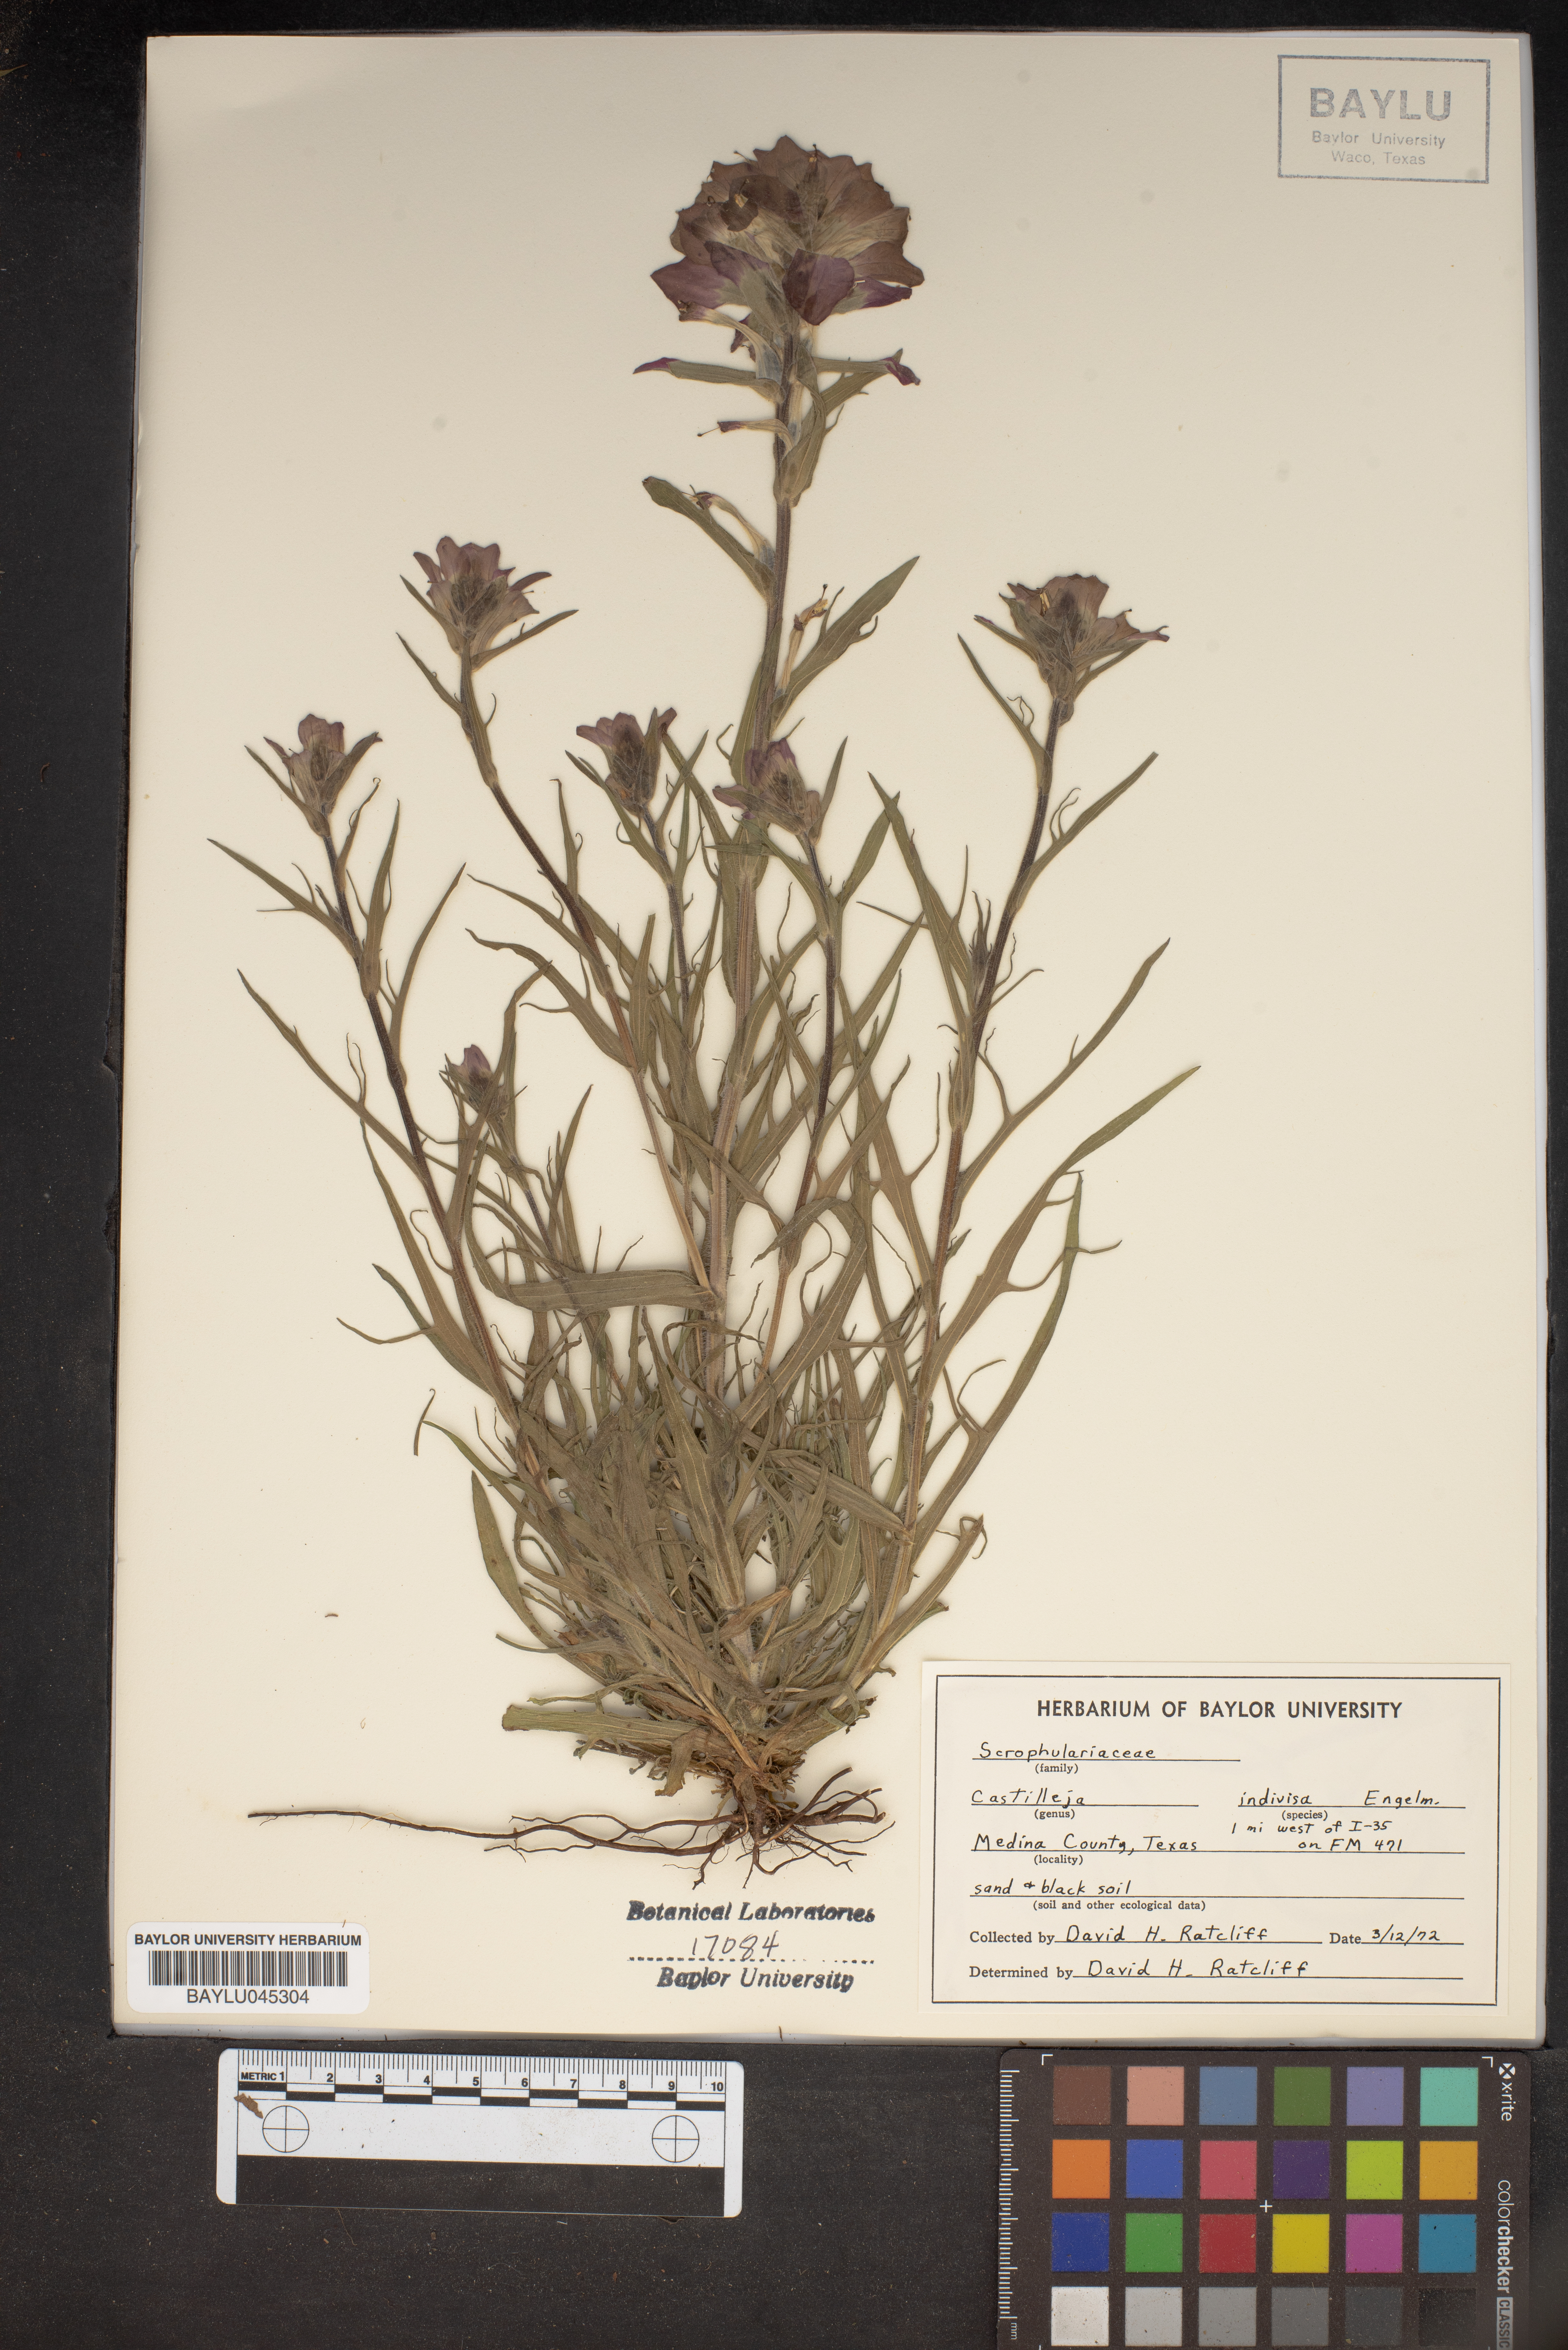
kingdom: Plantae
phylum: Tracheophyta
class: Magnoliopsida
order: Lamiales
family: Orobanchaceae
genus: Castilleja
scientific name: Castilleja indivisa
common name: Texas paintbrush
